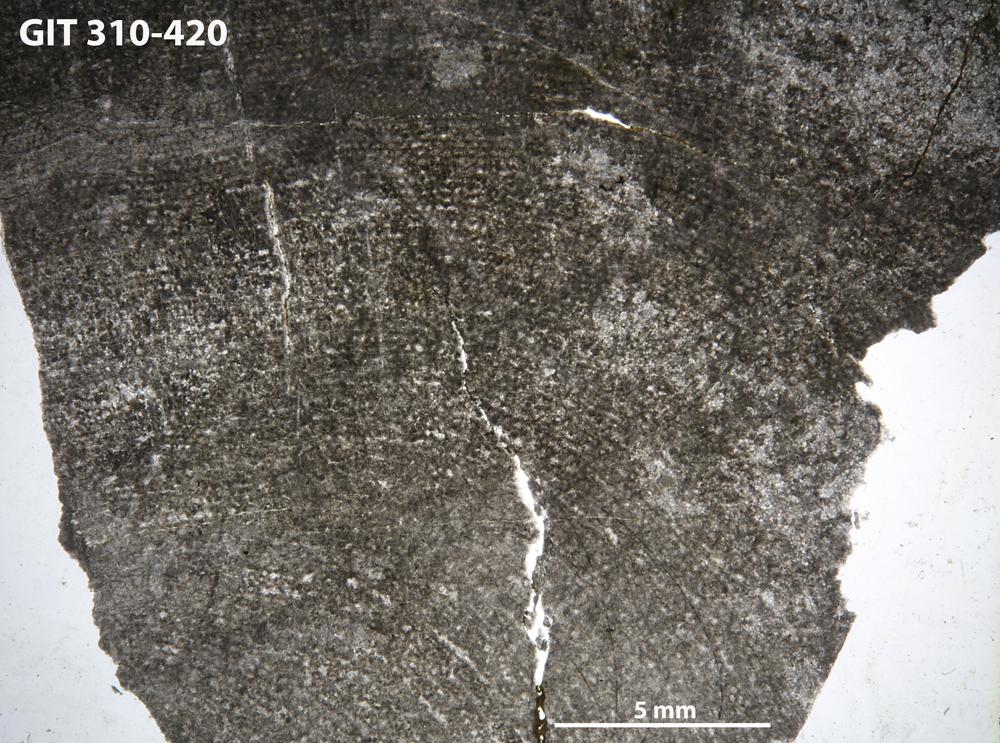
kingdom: Animalia
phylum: Porifera
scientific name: Porifera
